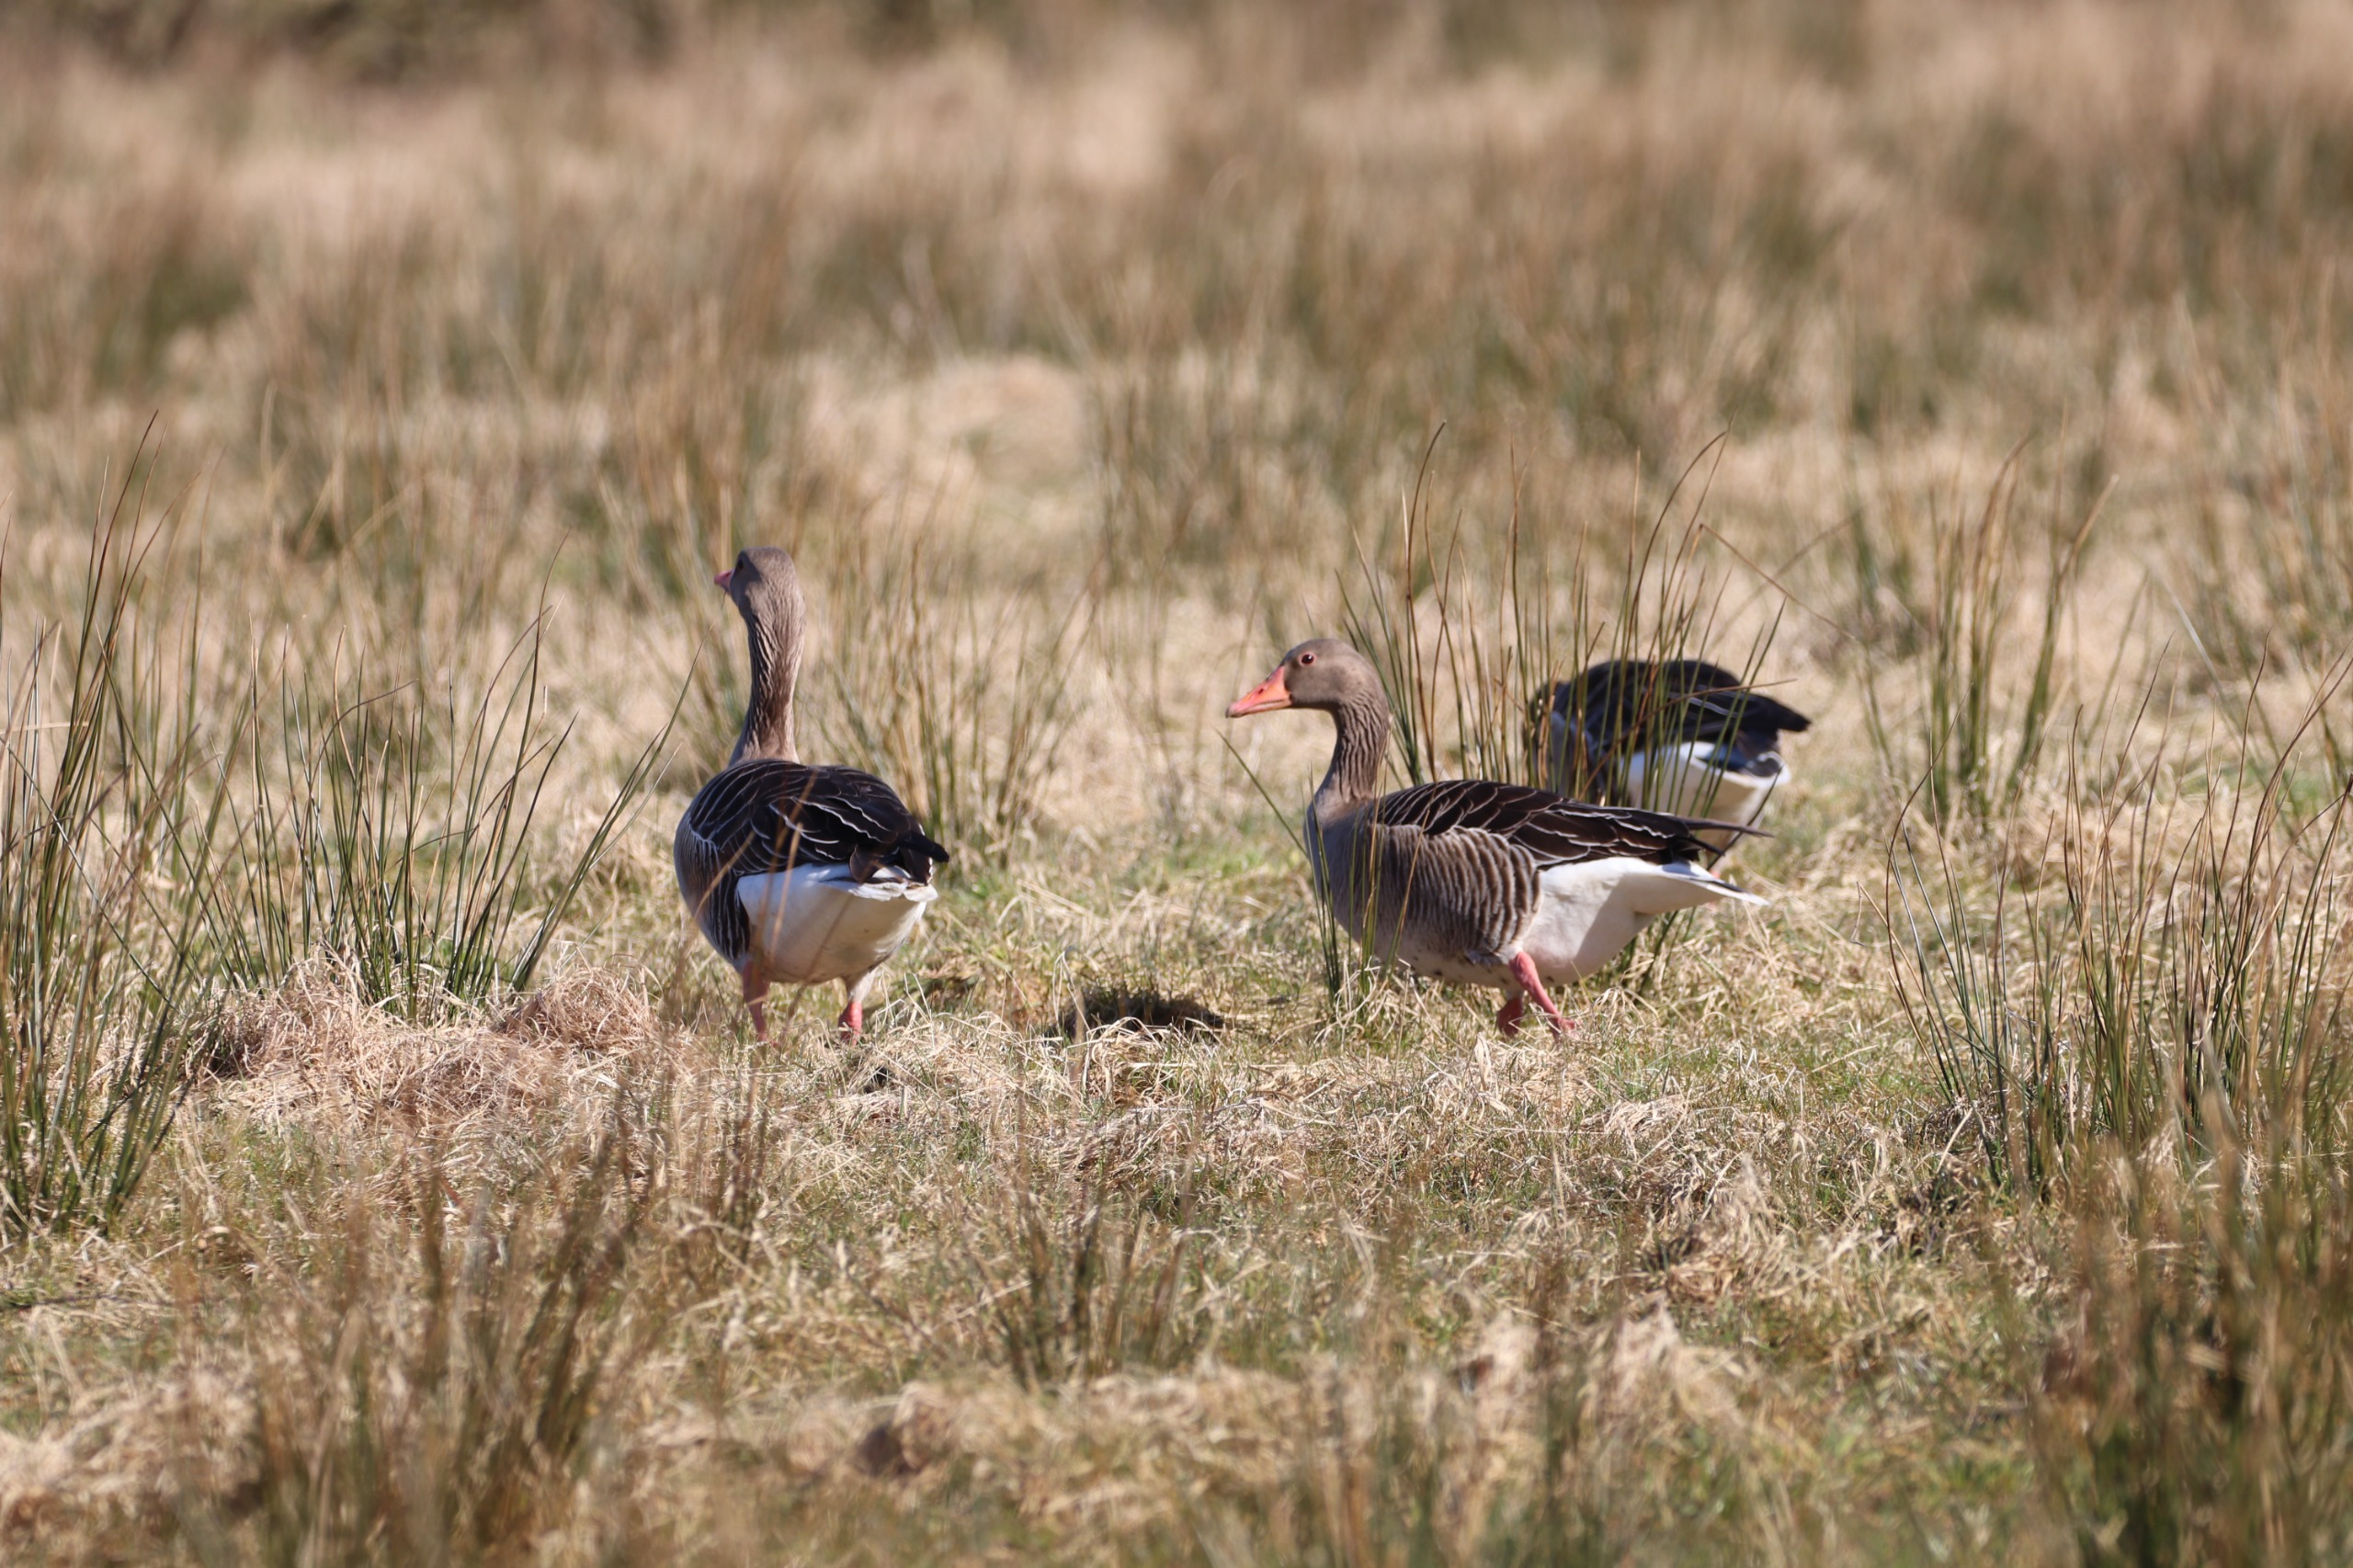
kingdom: Animalia
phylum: Chordata
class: Aves
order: Anseriformes
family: Anatidae
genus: Anser
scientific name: Anser anser
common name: Grågås
